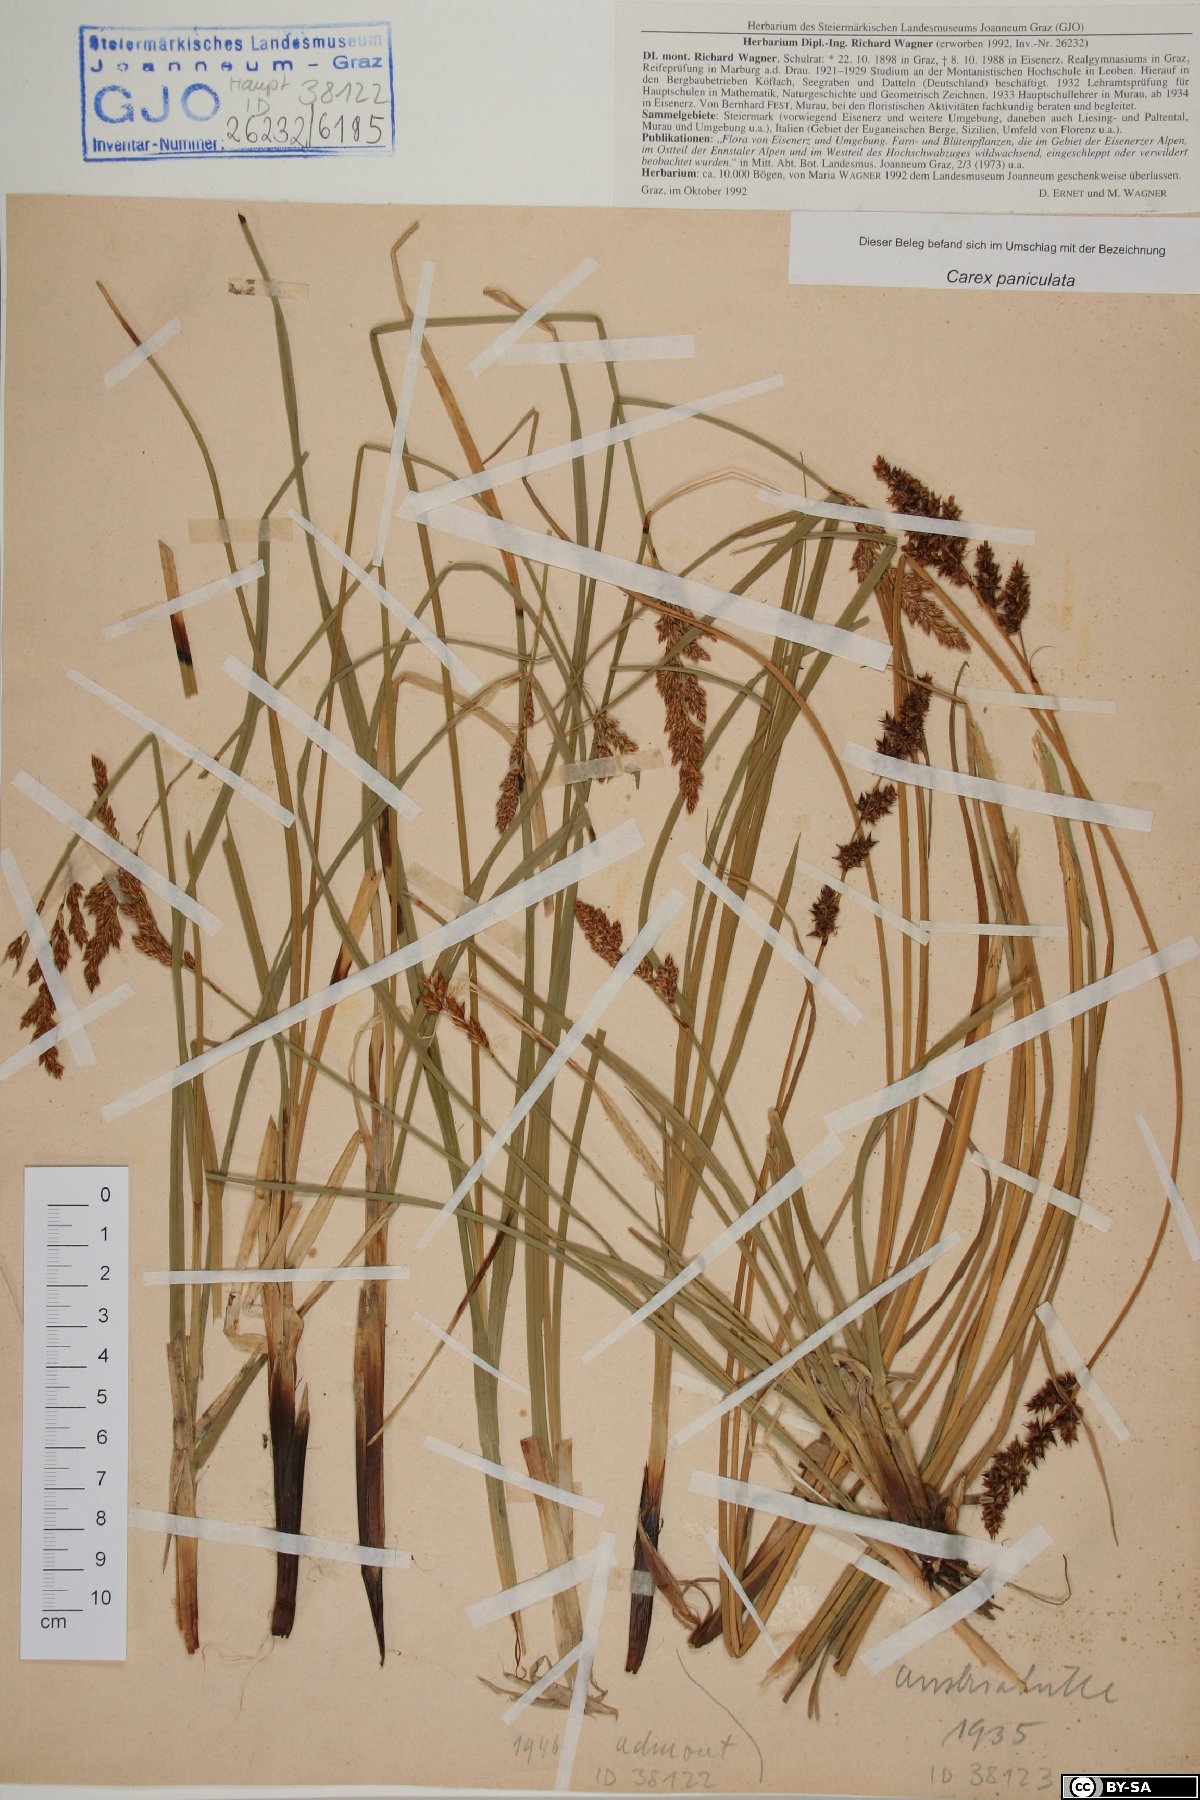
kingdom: Plantae
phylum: Tracheophyta
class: Liliopsida
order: Poales
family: Cyperaceae
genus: Carex
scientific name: Carex paniculata
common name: Greater tussock-sedge
